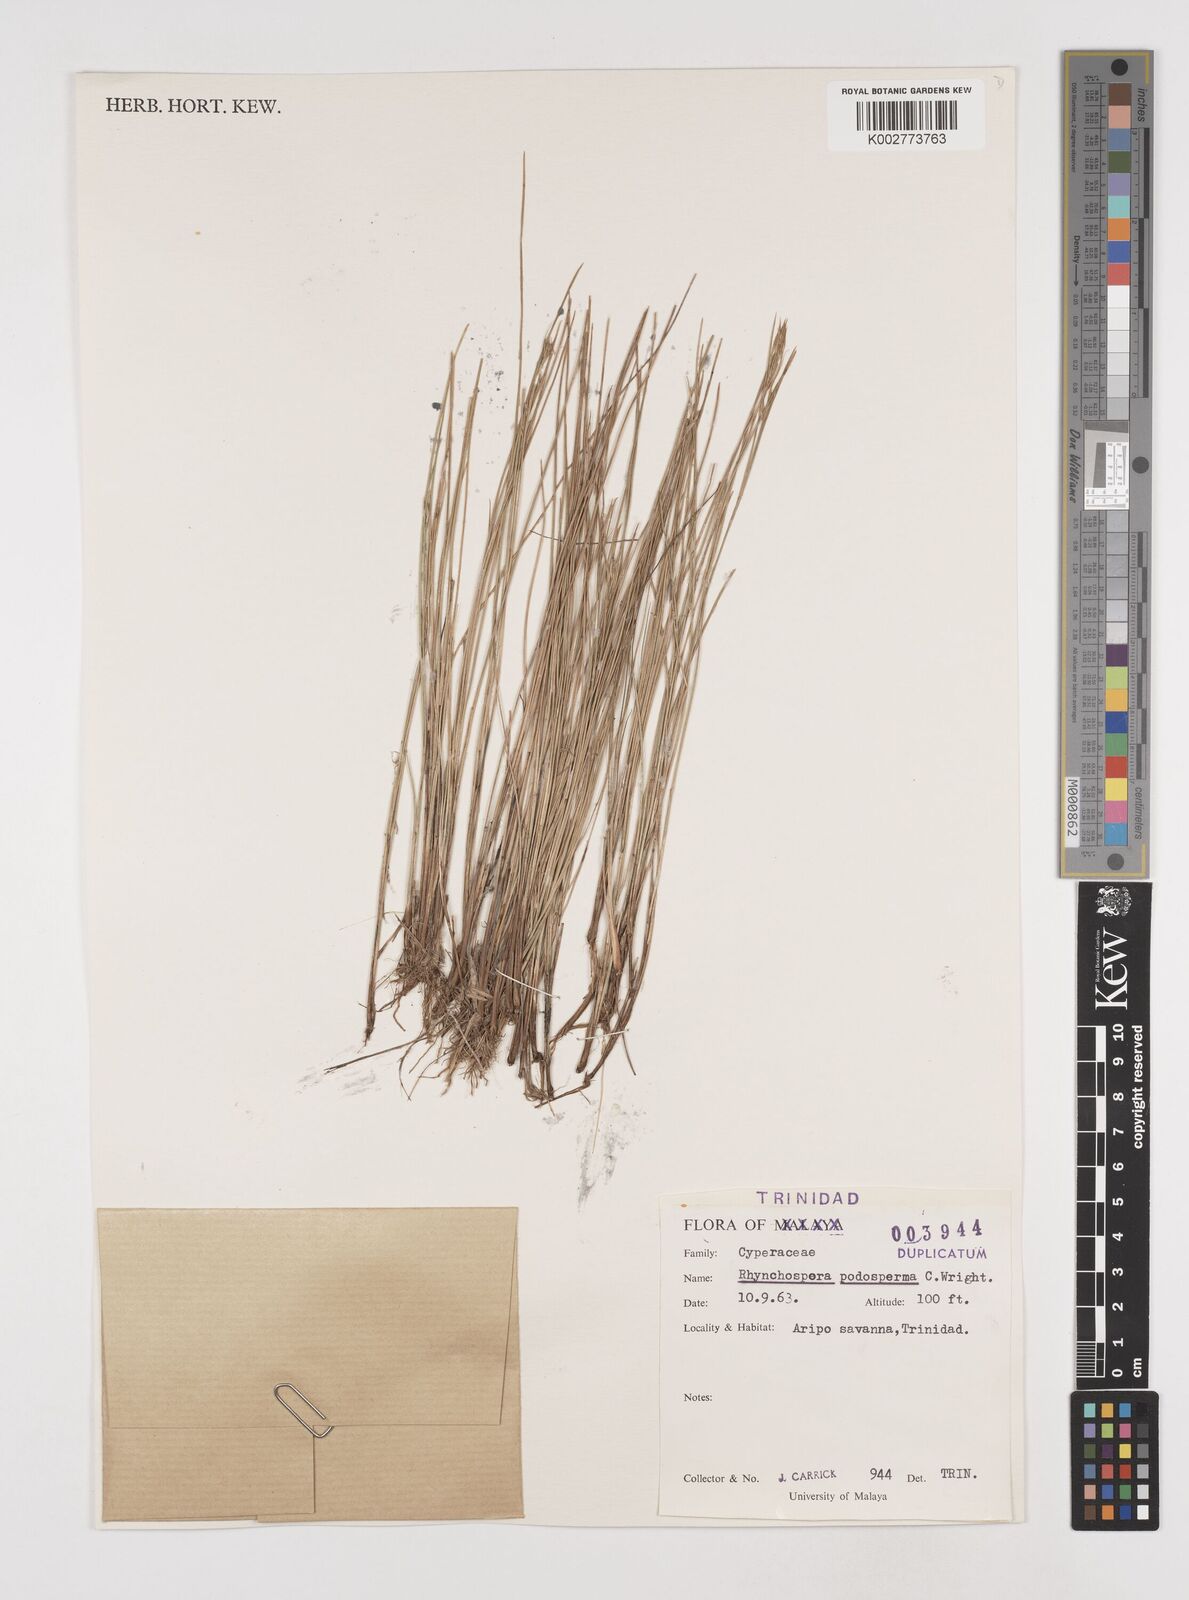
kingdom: Plantae
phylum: Tracheophyta
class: Liliopsida
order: Poales
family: Cyperaceae
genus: Rhynchospora
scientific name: Rhynchospora filiformis
